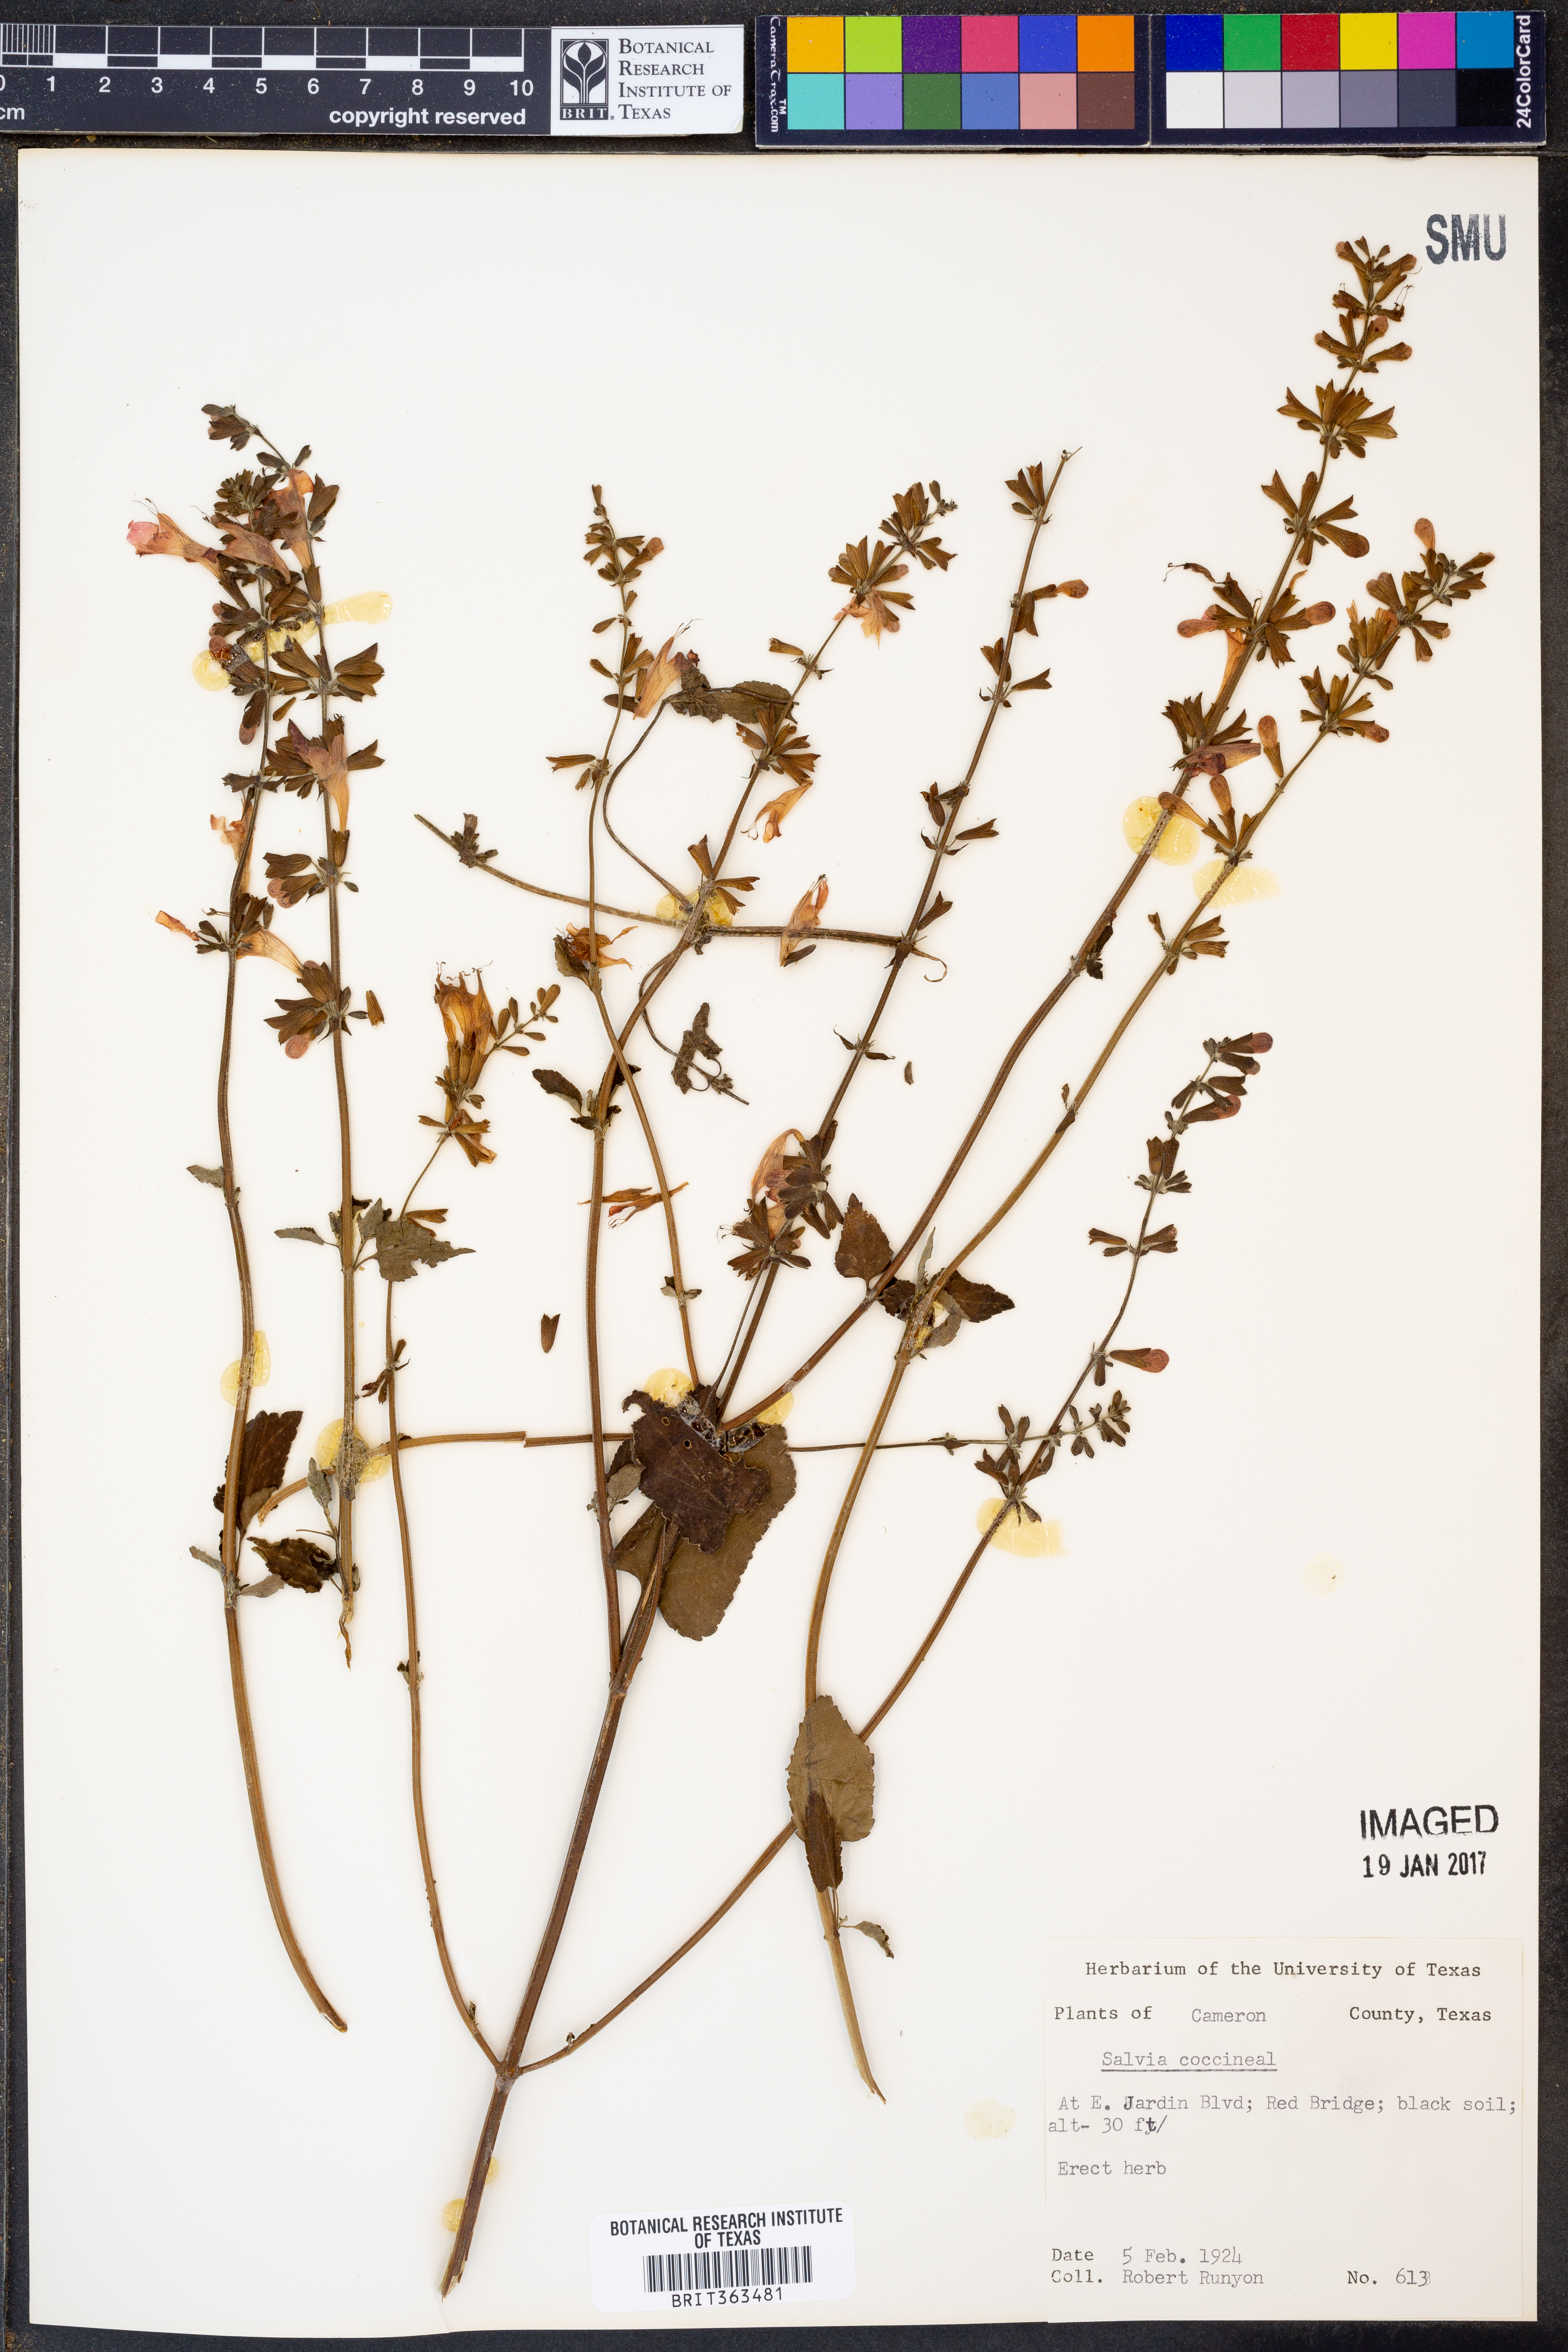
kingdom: Plantae
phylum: Tracheophyta
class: Magnoliopsida
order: Lamiales
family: Lamiaceae
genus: Salvia
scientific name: Salvia coccinea
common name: Blood sage
